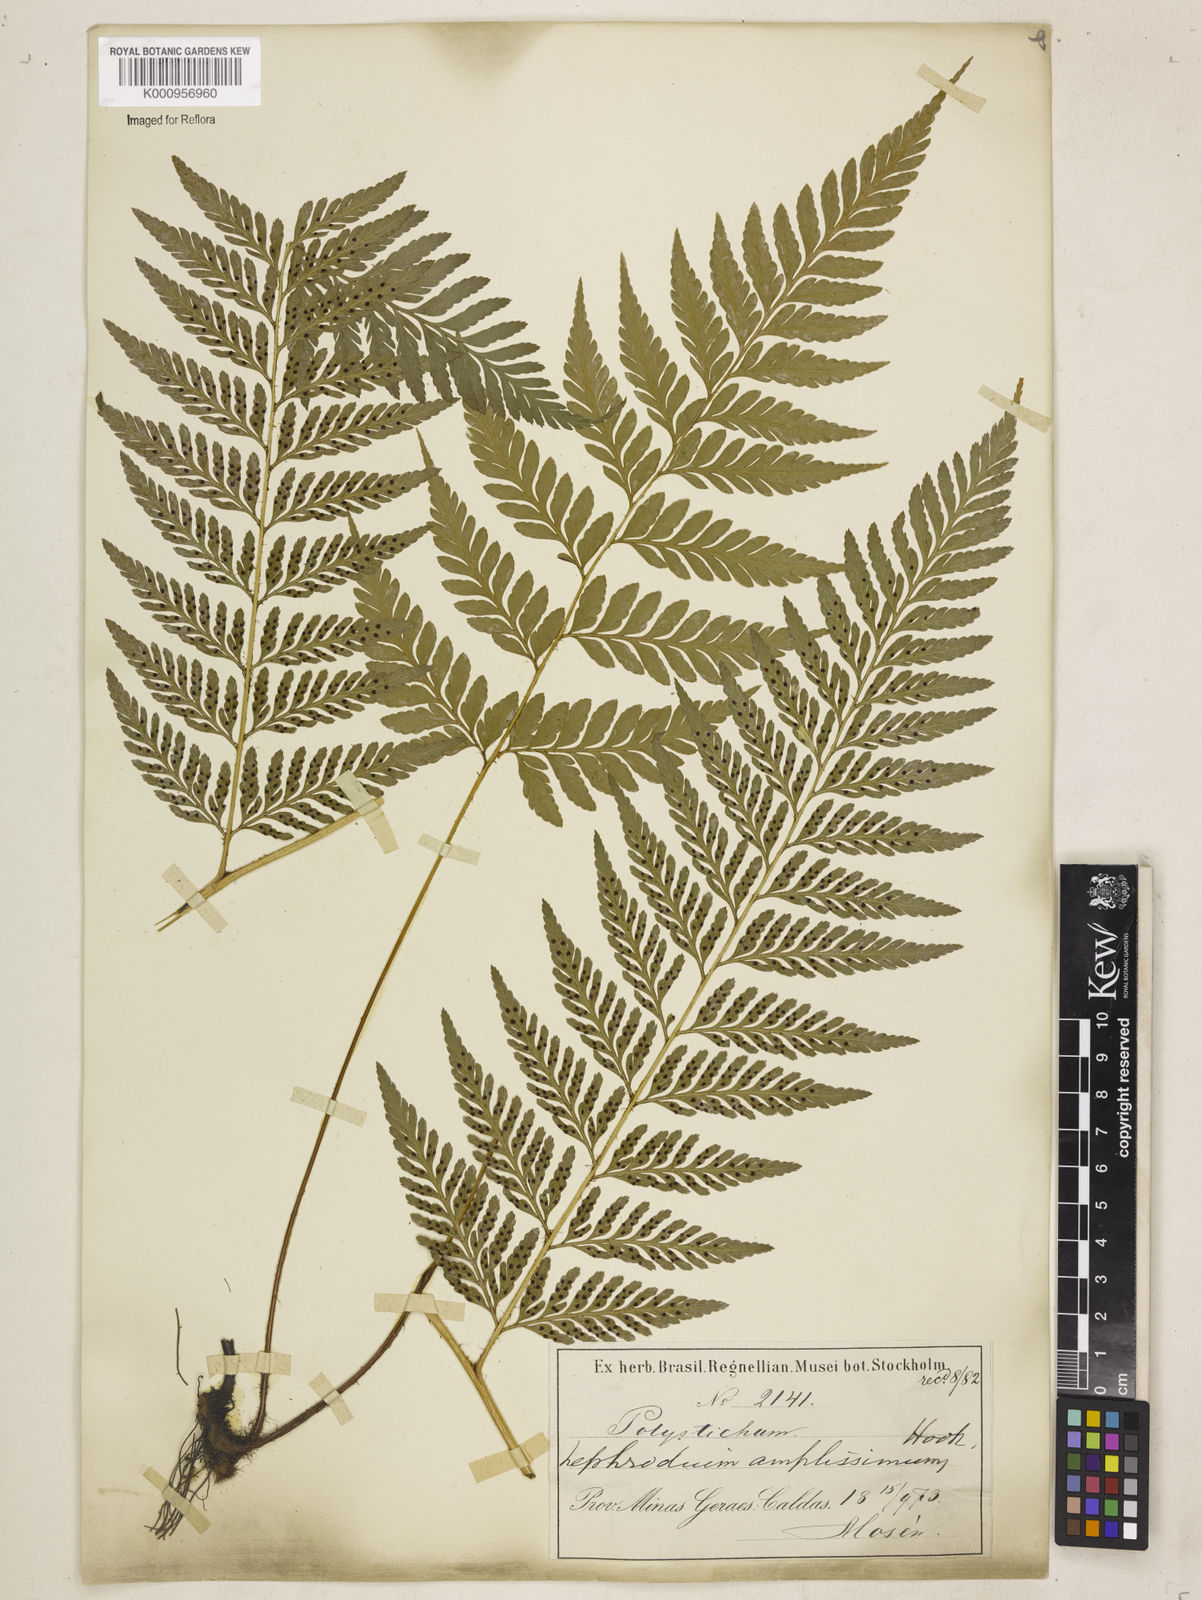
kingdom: Plantae
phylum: Tracheophyta
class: Polypodiopsida
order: Polypodiales
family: Dryopteridaceae
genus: Lastreopsis
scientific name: Lastreopsis amplissima
